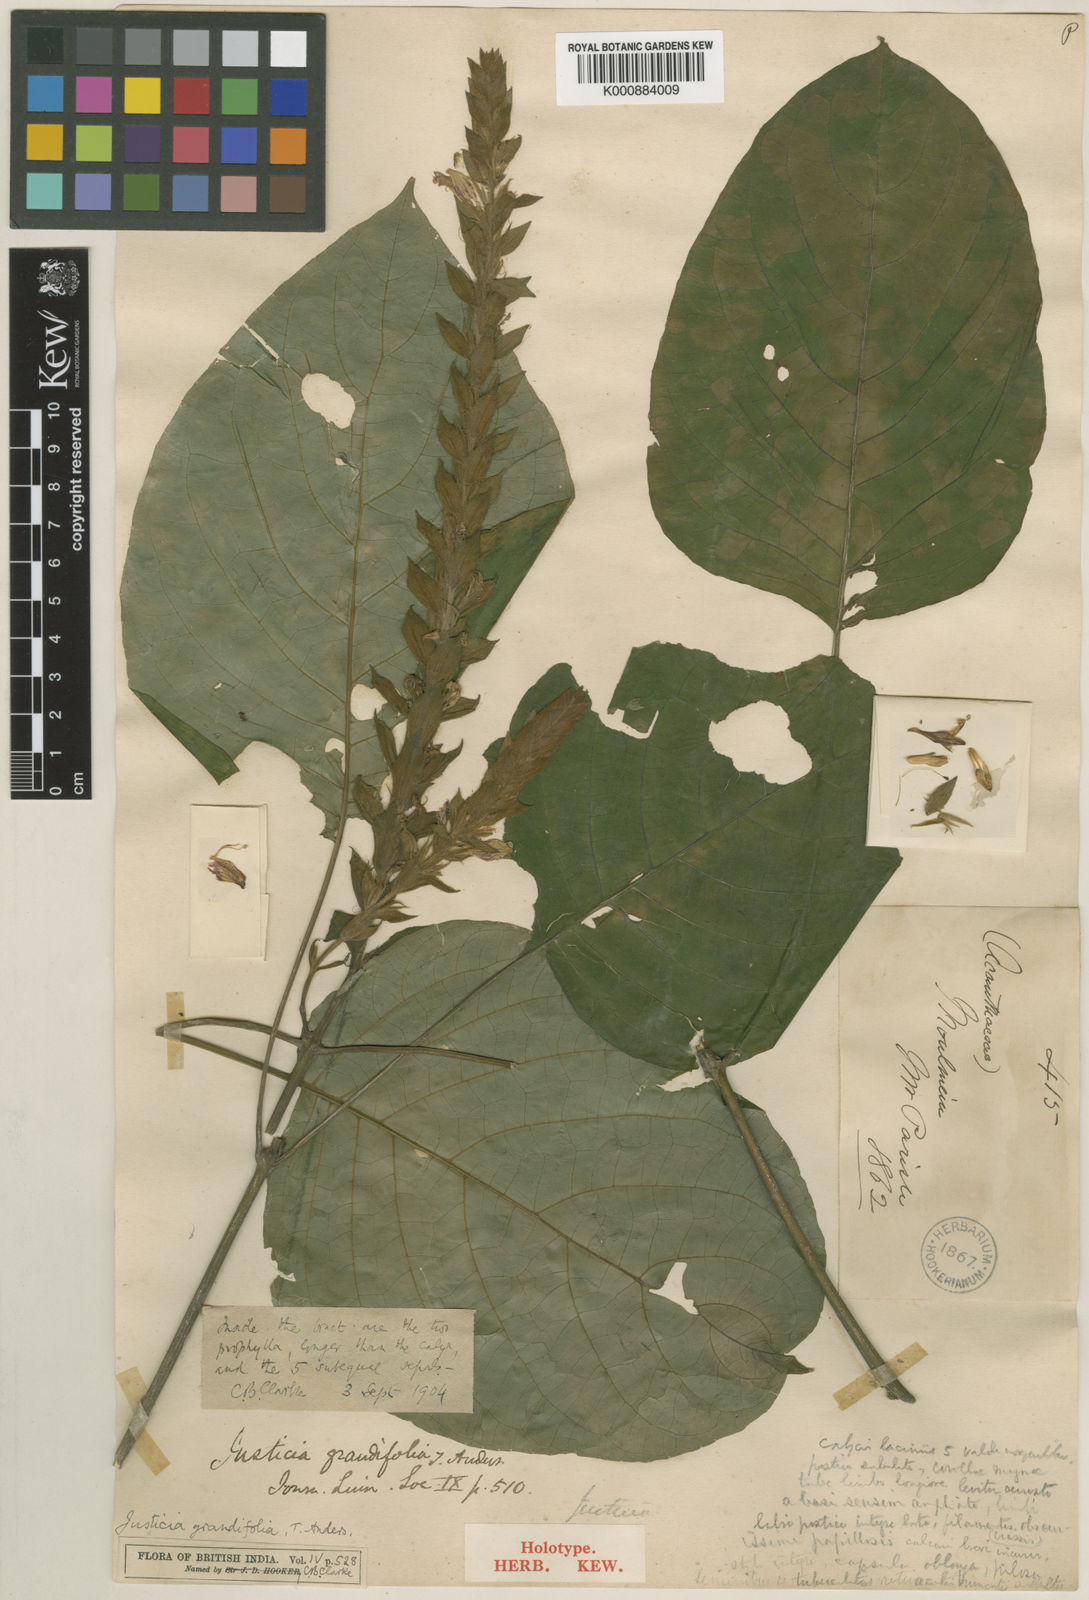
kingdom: Plantae
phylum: Tracheophyta
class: Magnoliopsida
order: Lamiales
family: Acanthaceae
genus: Justicia
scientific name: Justicia grandifolia
